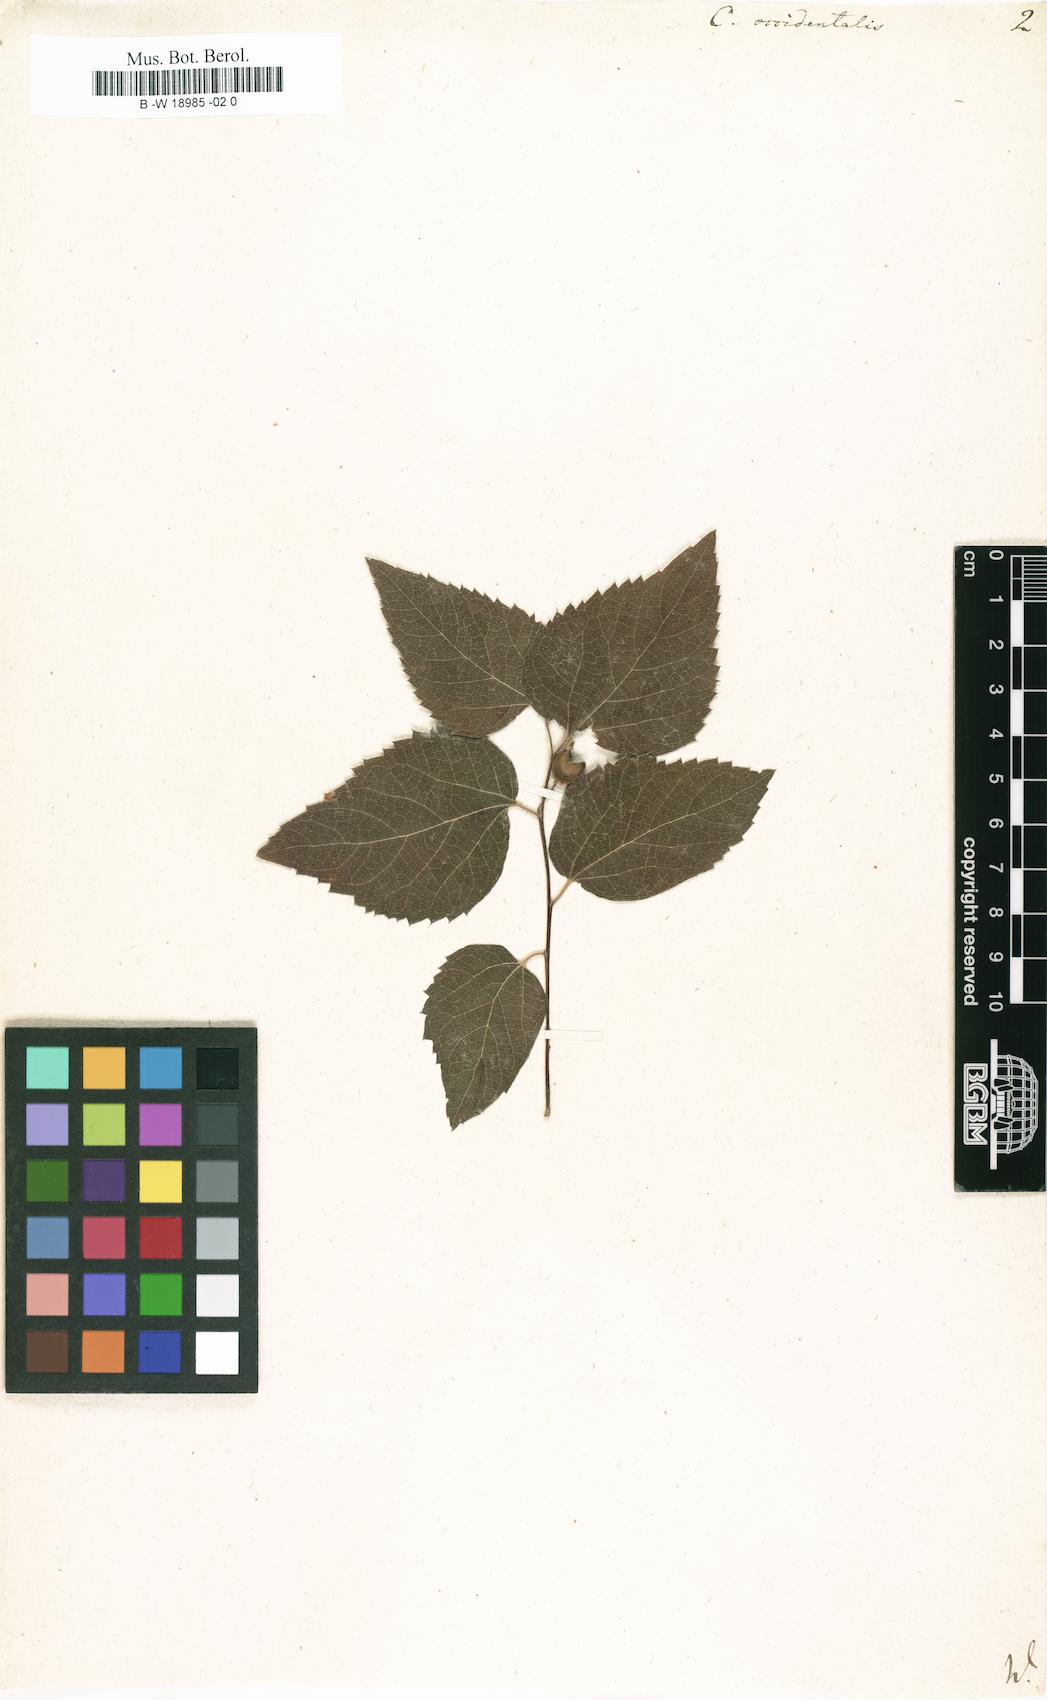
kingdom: Plantae
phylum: Tracheophyta
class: Magnoliopsida
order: Rosales
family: Cannabaceae
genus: Celtis
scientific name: Celtis occidentalis
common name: Common hackberry
